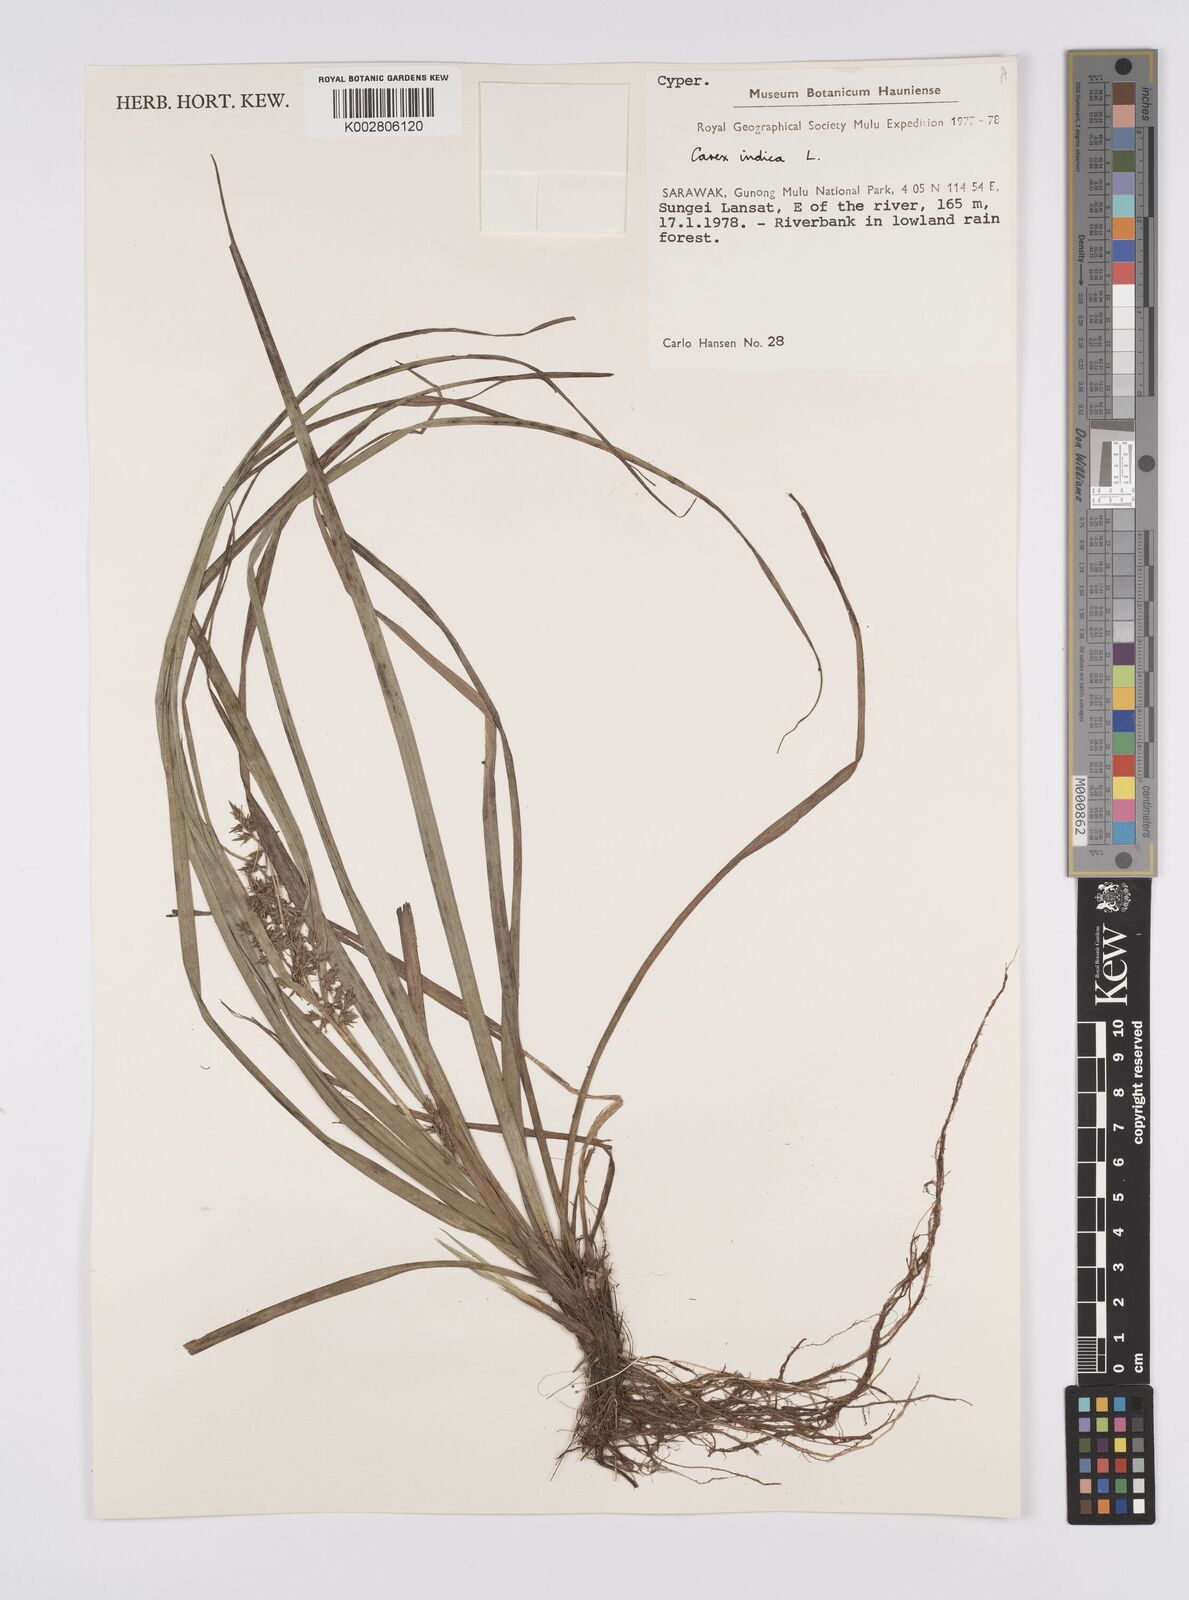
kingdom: Plantae
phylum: Tracheophyta
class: Liliopsida
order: Poales
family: Cyperaceae
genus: Carex
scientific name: Carex indica
